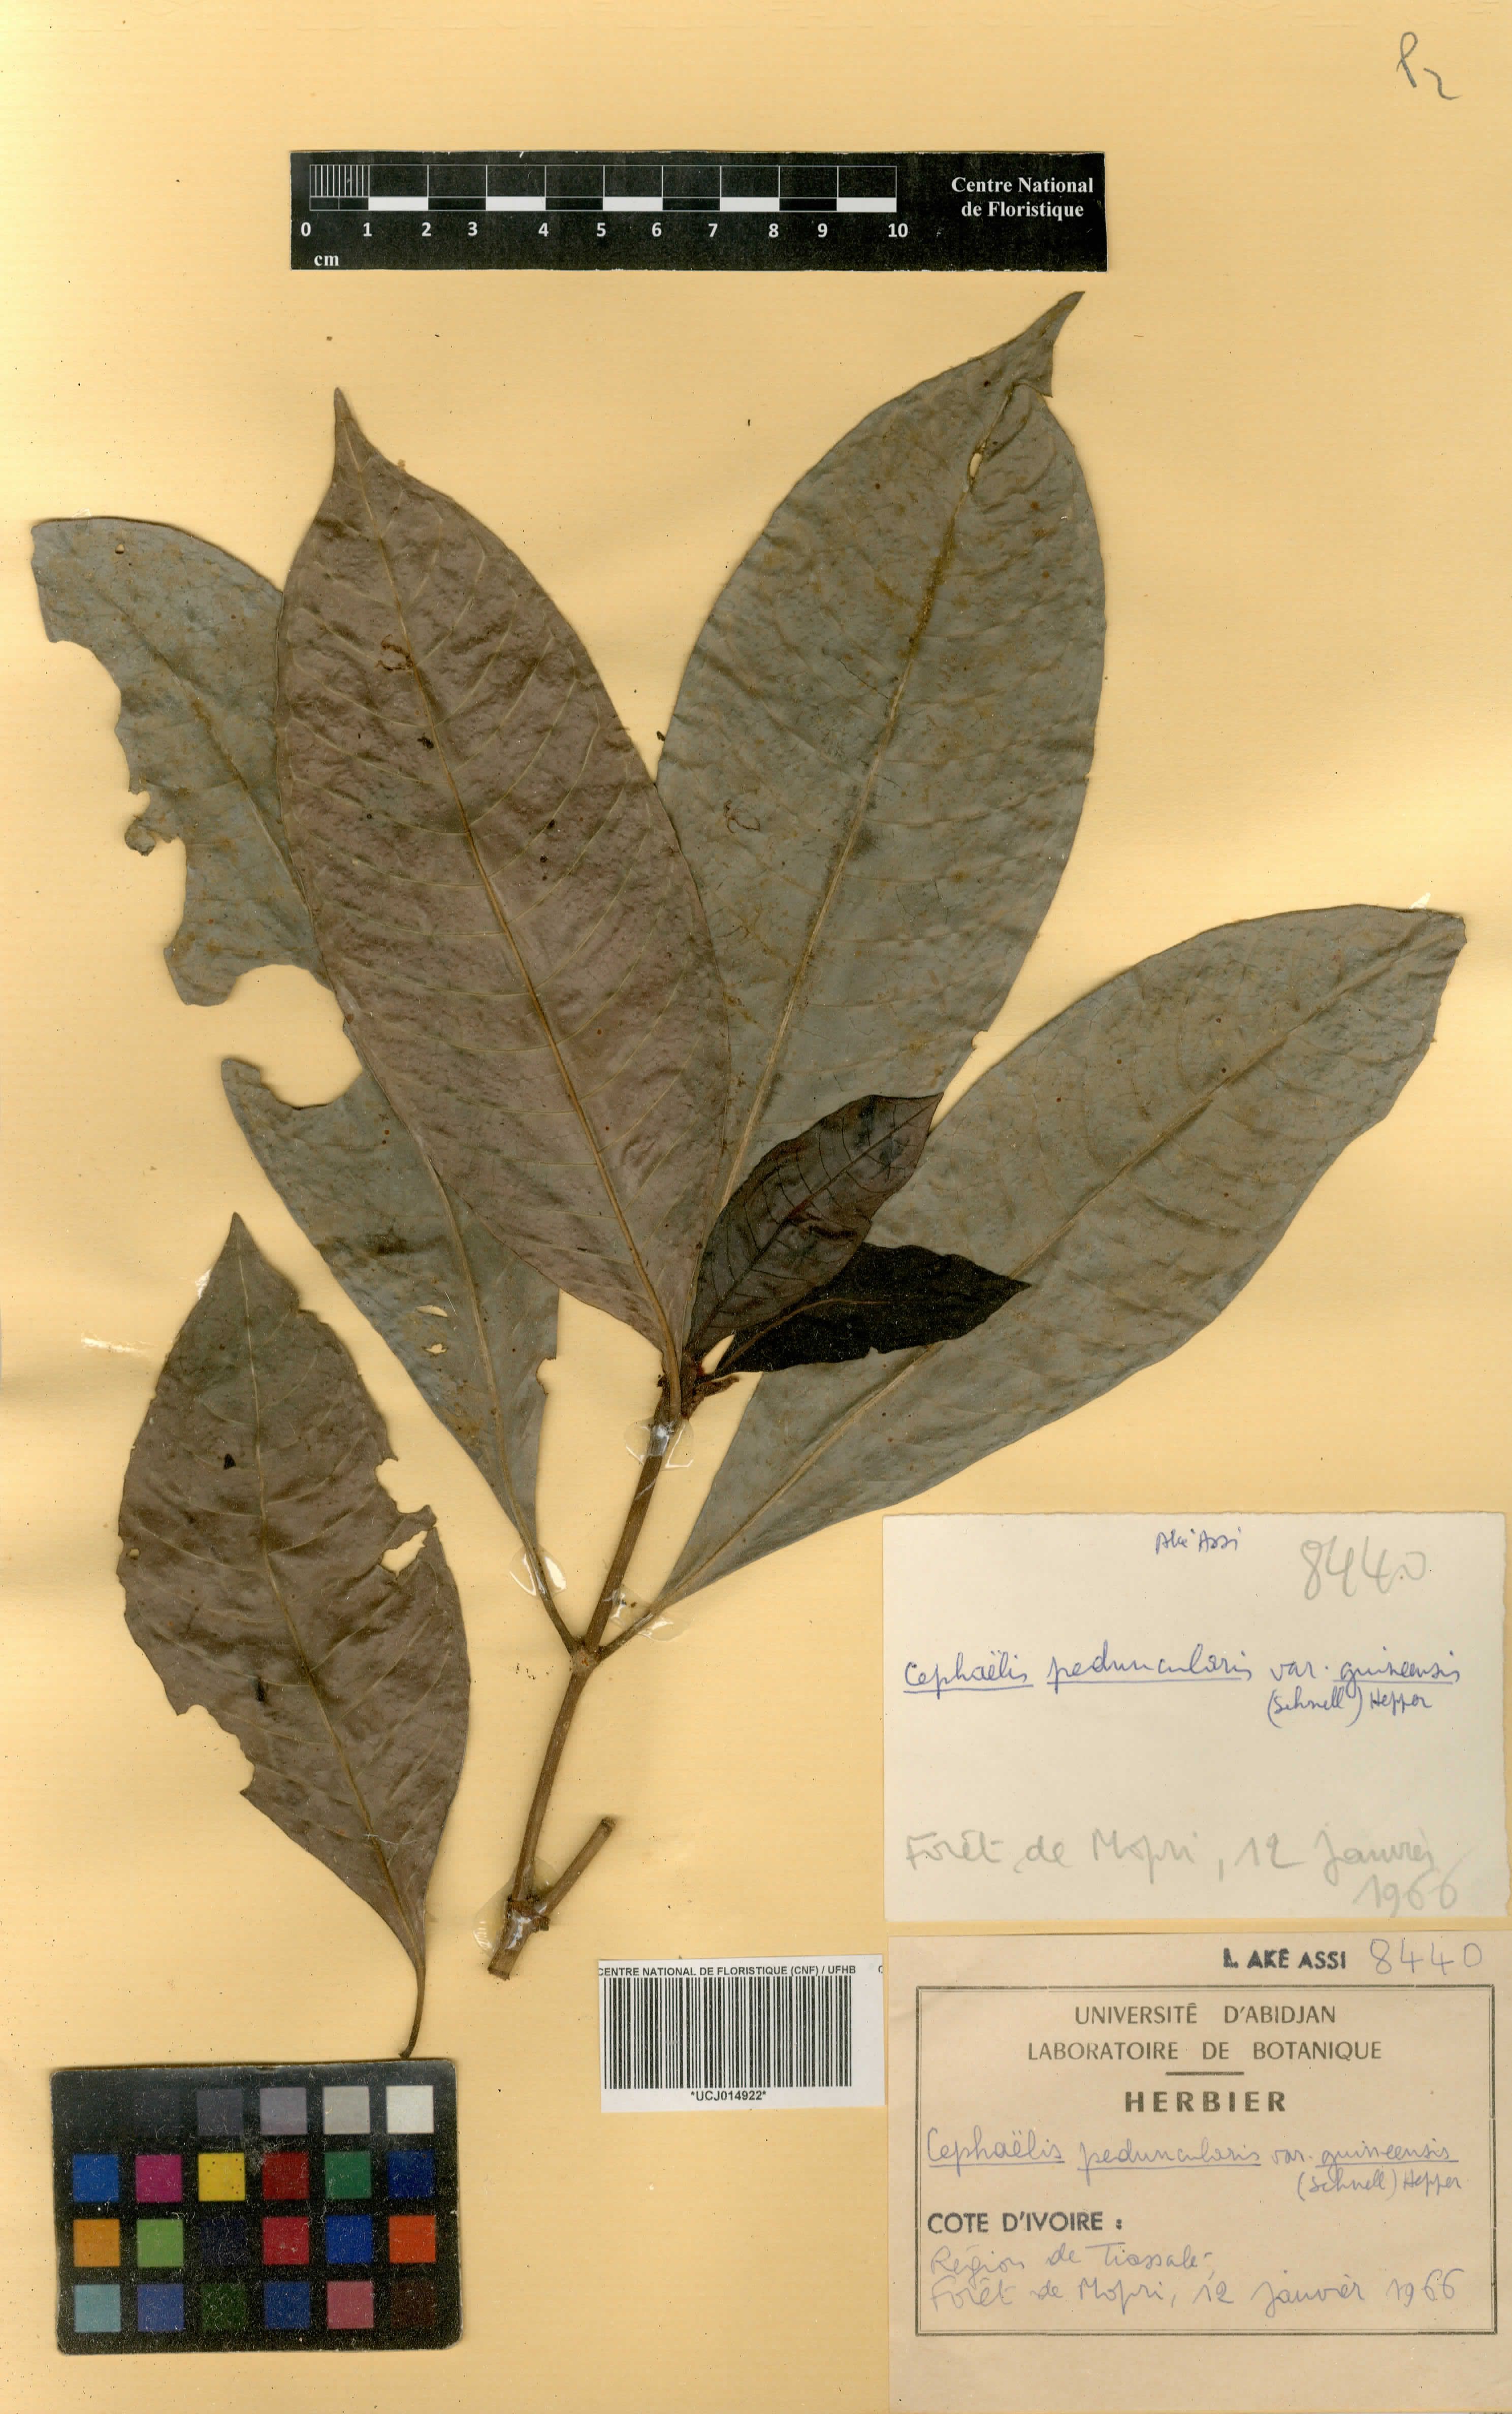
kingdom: Plantae
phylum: Tracheophyta
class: Magnoliopsida
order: Gentianales
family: Rubiaceae
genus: Psychotria
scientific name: Psychotria peduncularis
